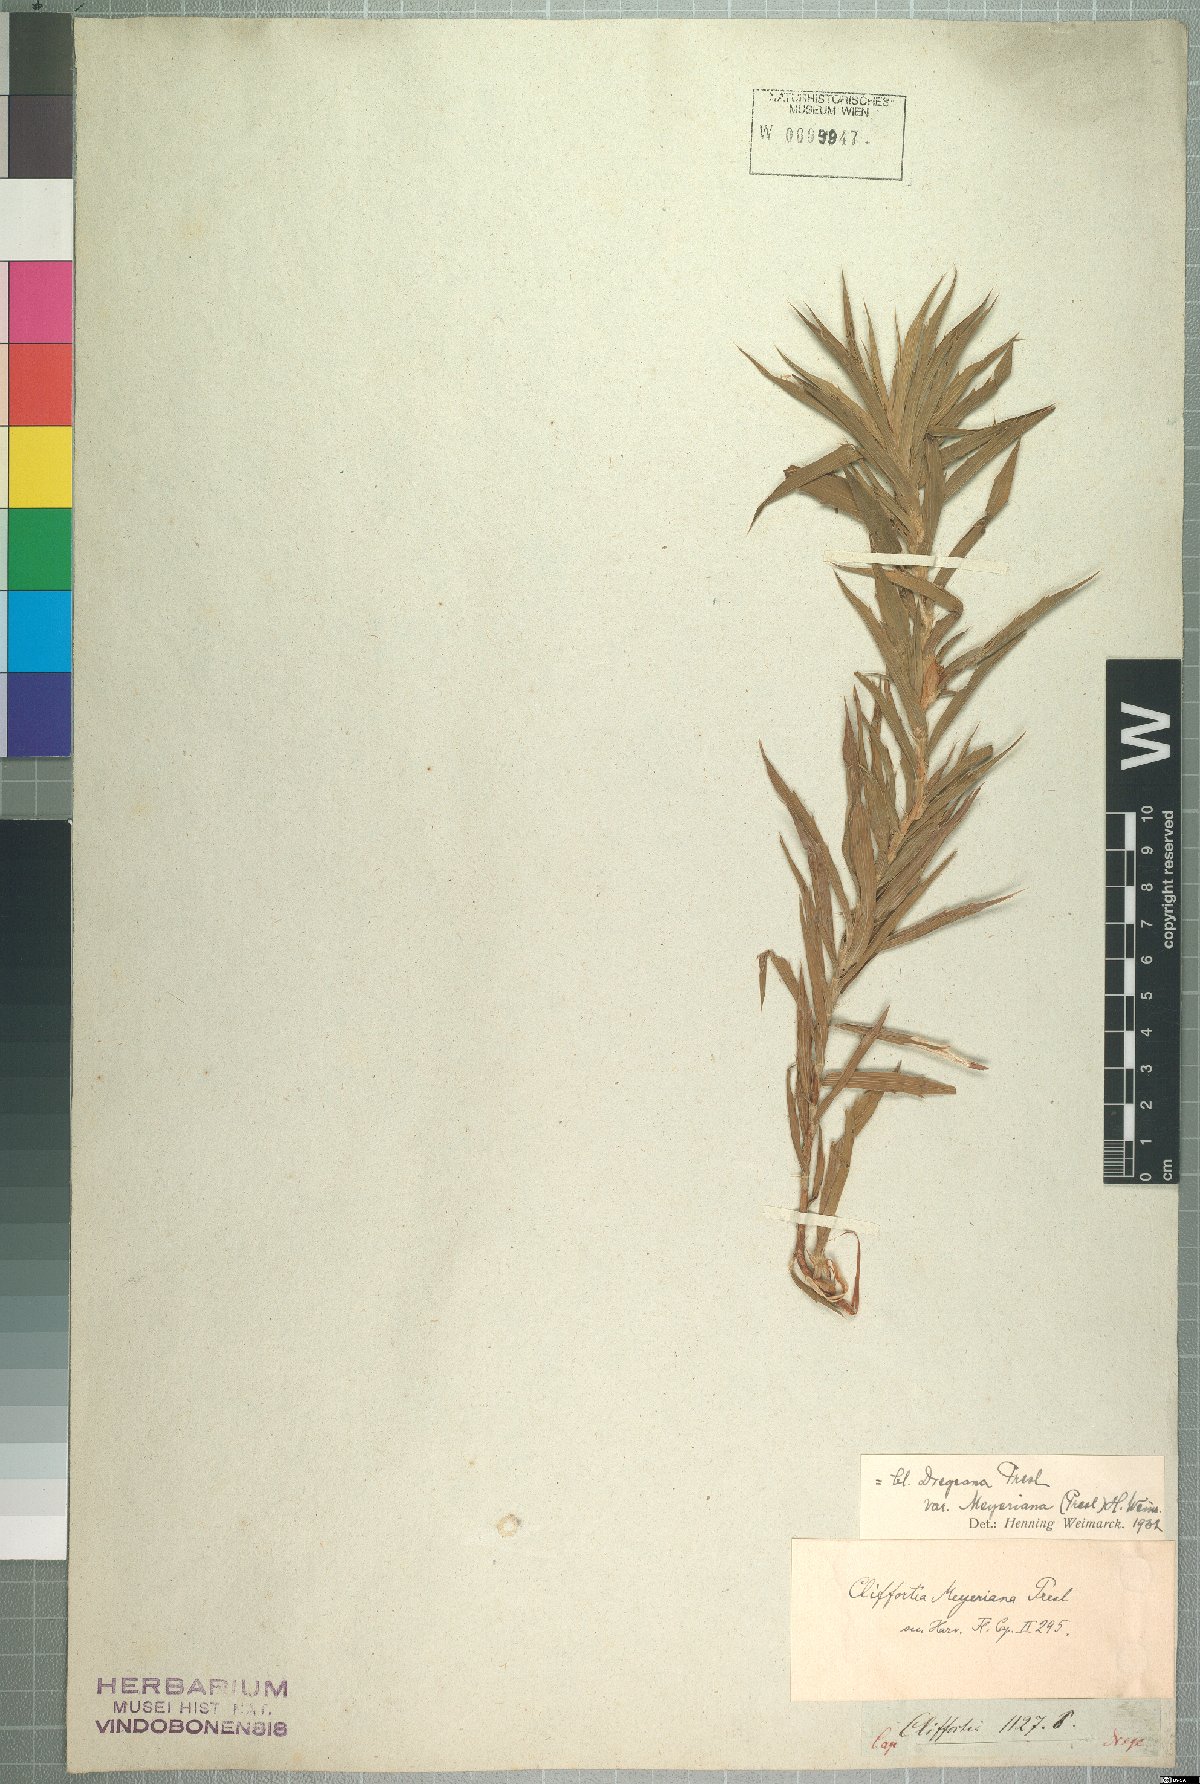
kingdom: Plantae
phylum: Tracheophyta
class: Magnoliopsida
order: Rosales
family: Rosaceae
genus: Cliffortia
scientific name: Cliffortia dregeana
